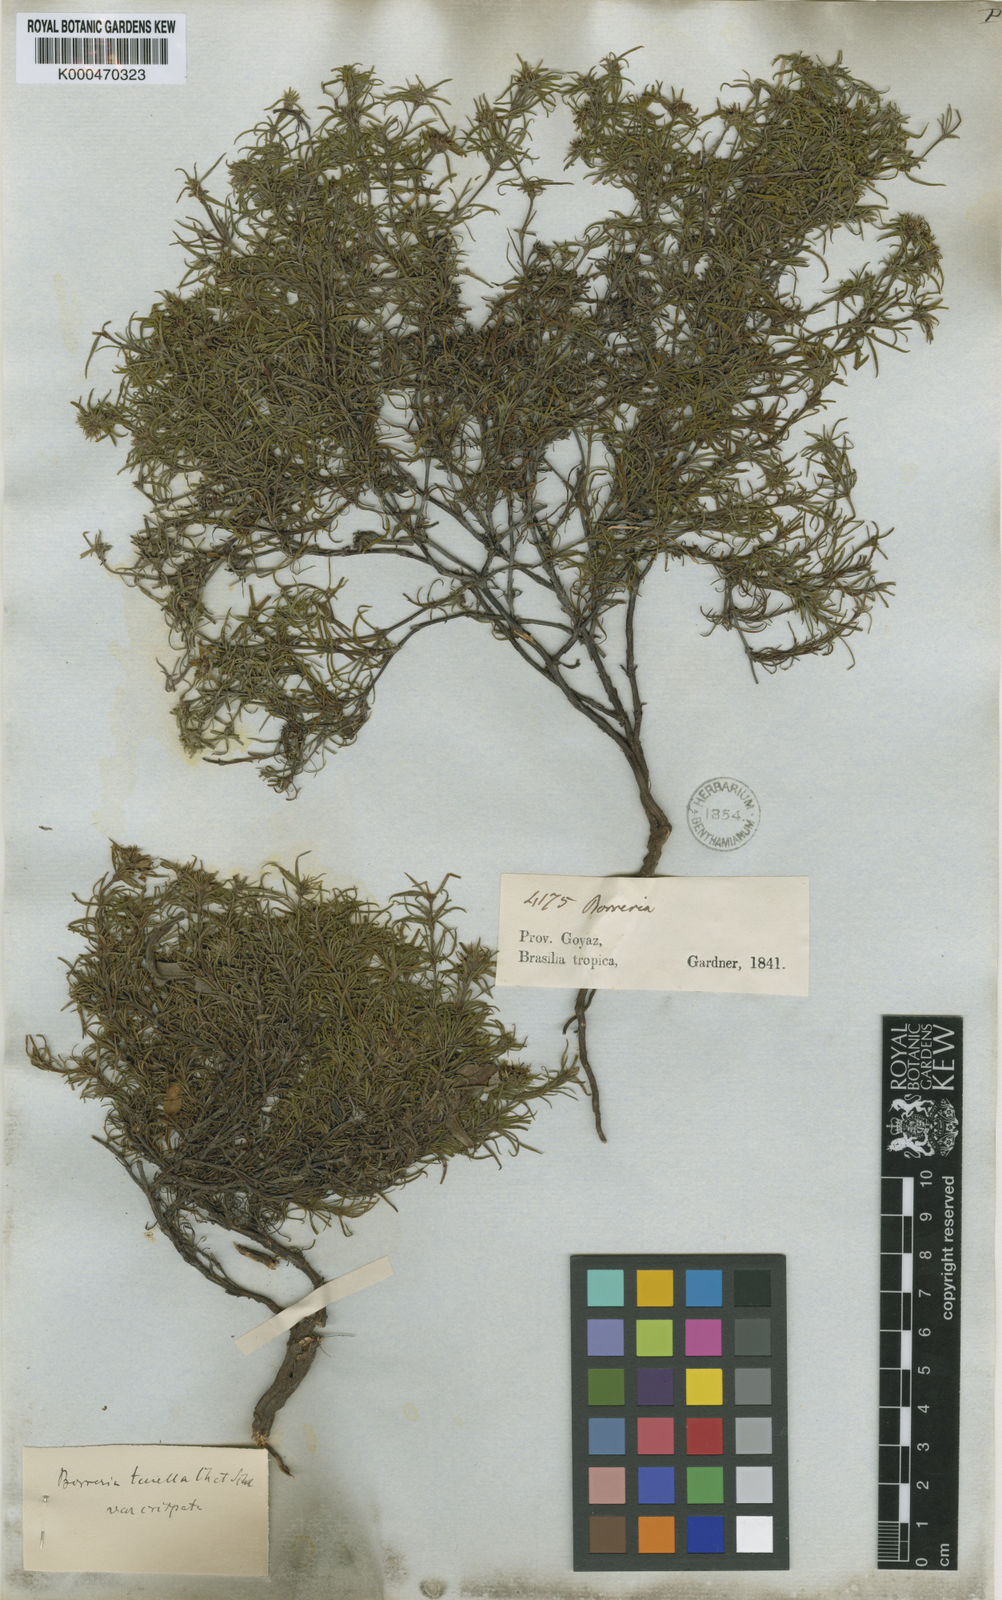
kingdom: Plantae
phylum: Tracheophyta
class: Magnoliopsida
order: Gentianales
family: Rubiaceae
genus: Spermacoce
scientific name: Spermacoce crispata
